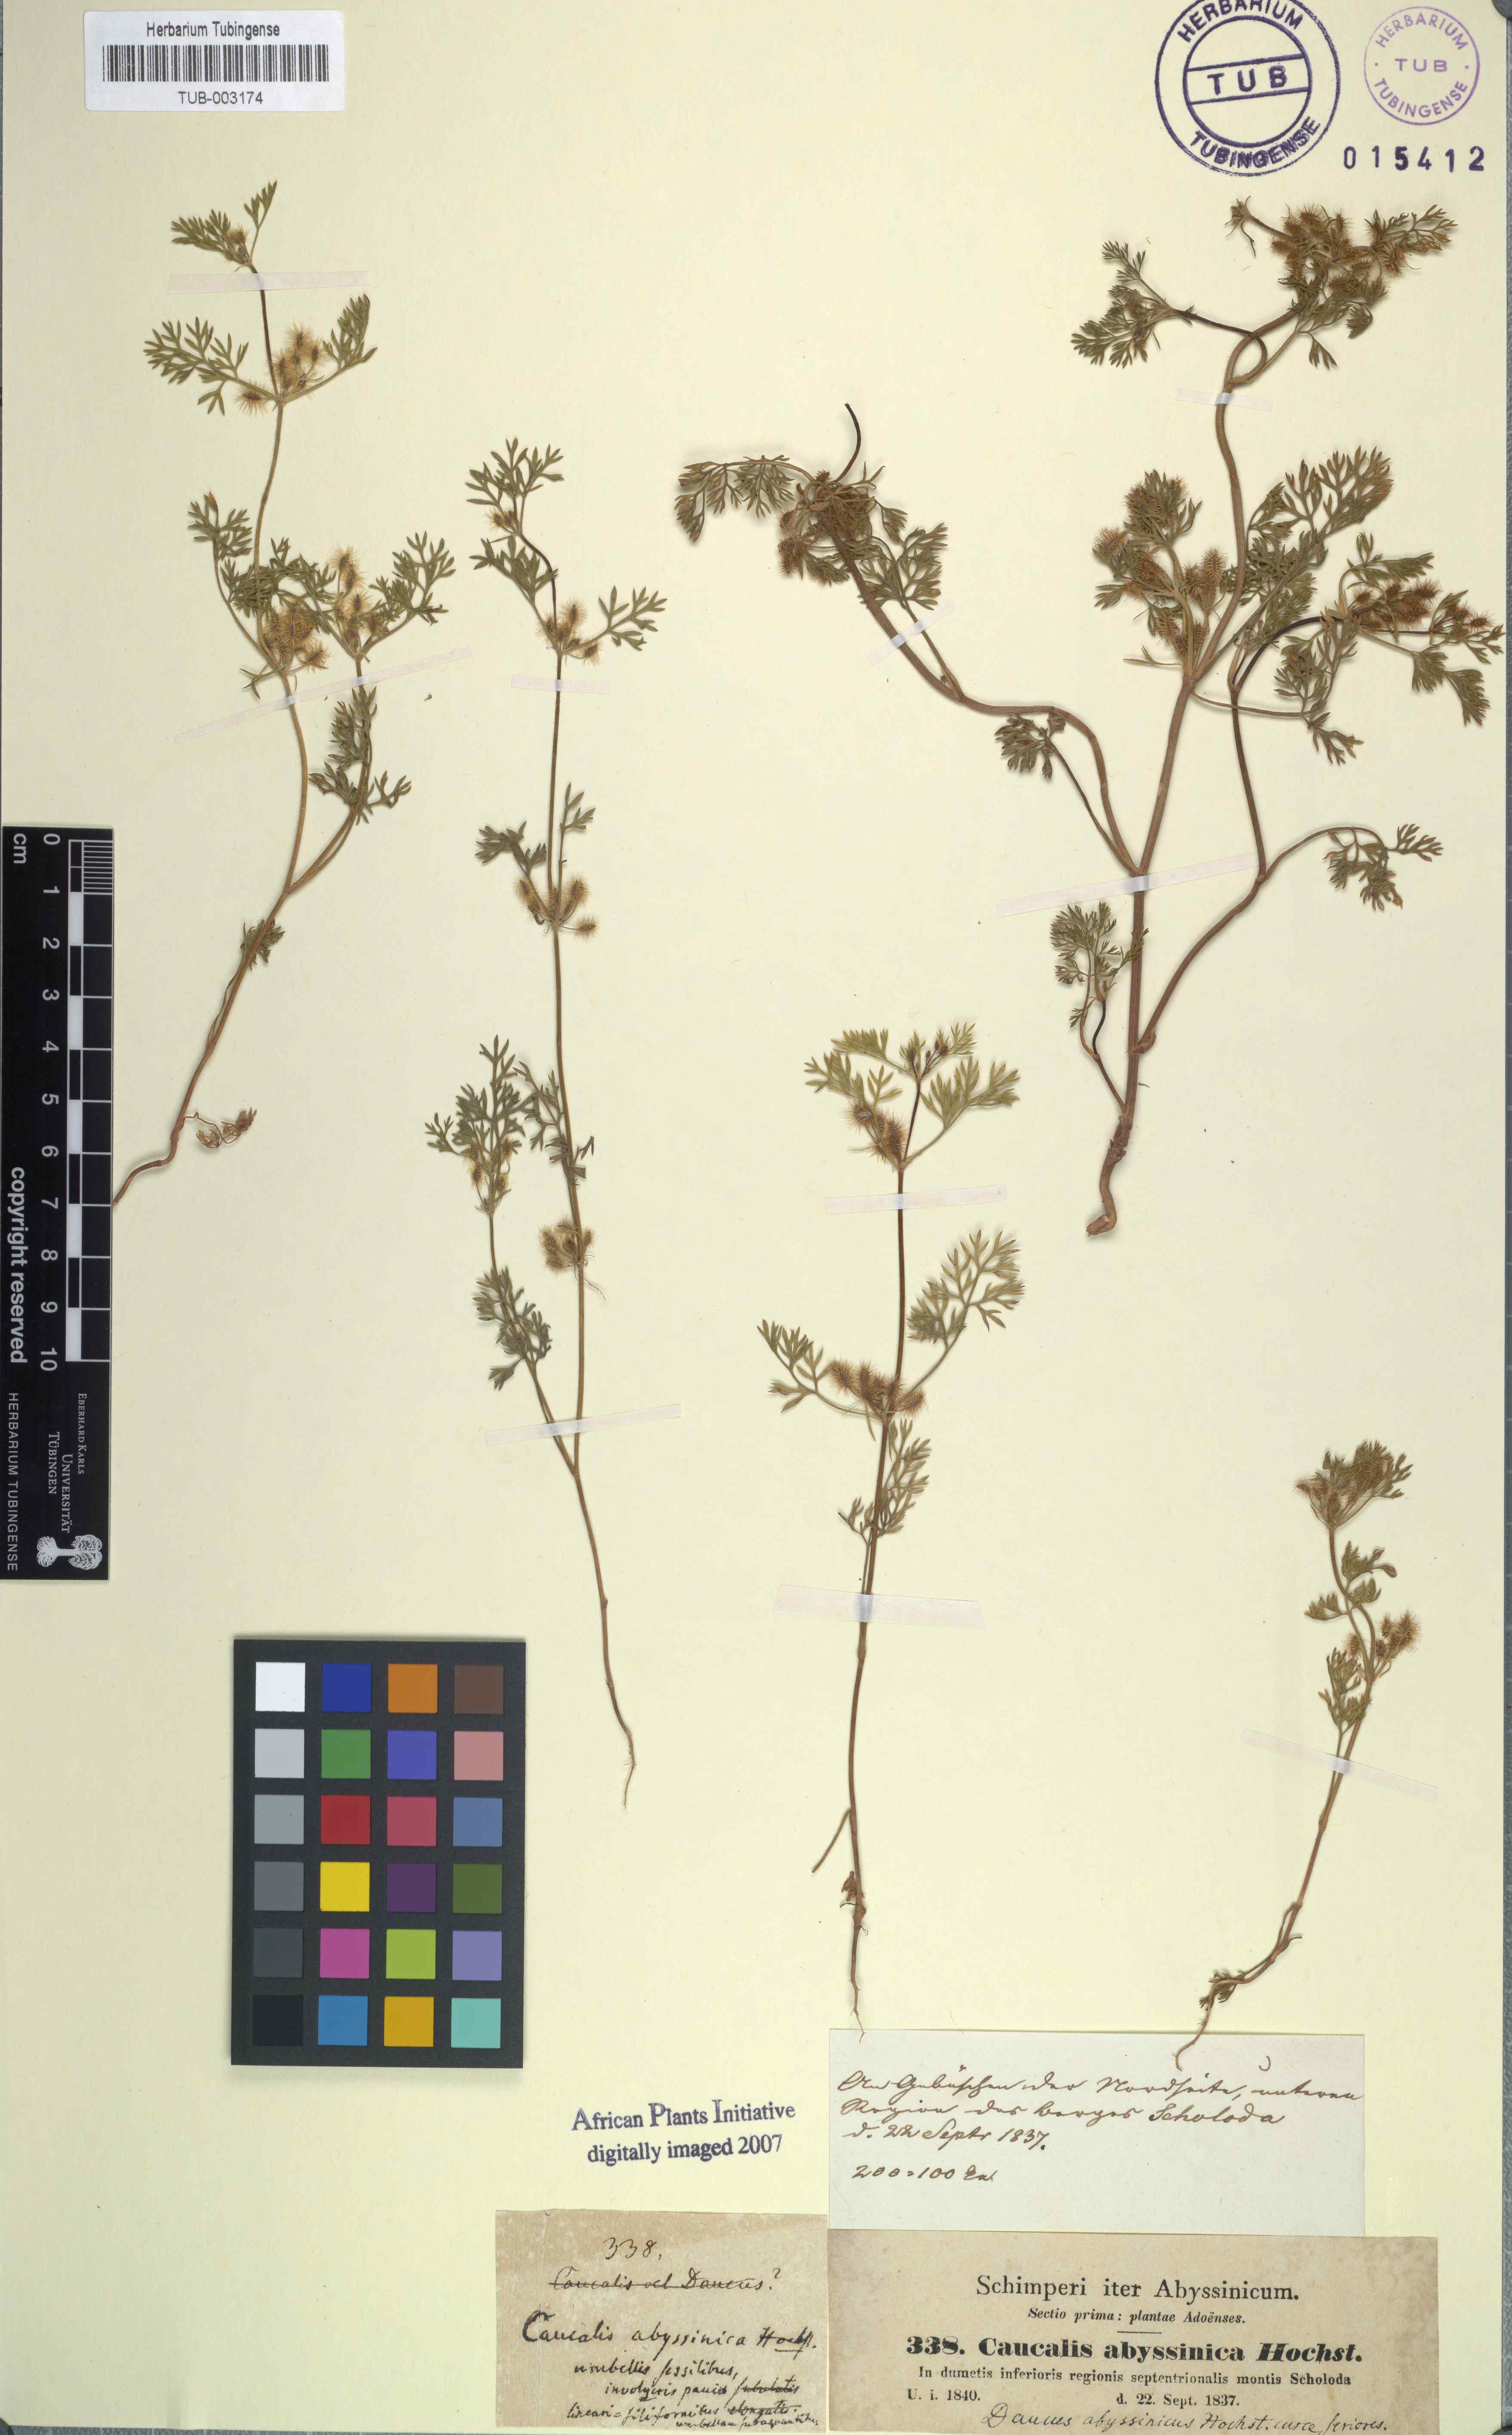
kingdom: Plantae
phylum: Tracheophyta
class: Magnoliopsida
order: Apiales
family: Apiaceae
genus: Daucus
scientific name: Daucus hochstetteri
